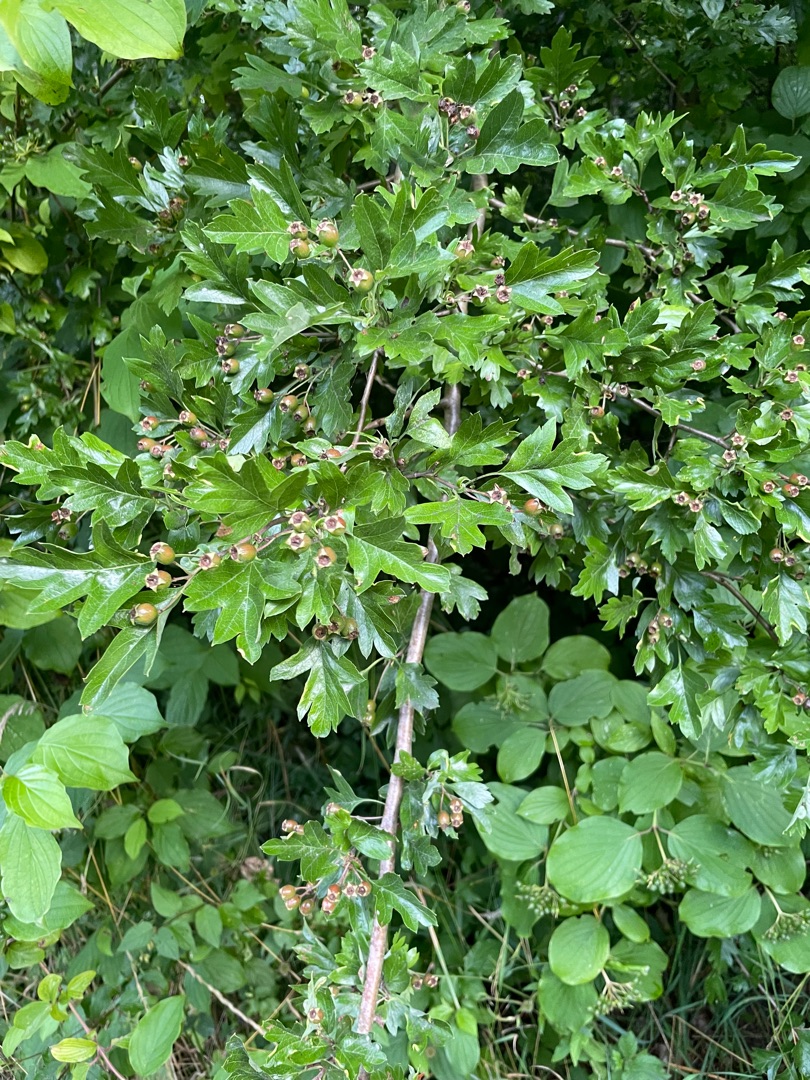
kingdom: Plantae
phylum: Tracheophyta
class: Magnoliopsida
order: Rosales
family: Rosaceae
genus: Crataegus
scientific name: Crataegus monogyna
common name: Engriflet hvidtjørn
